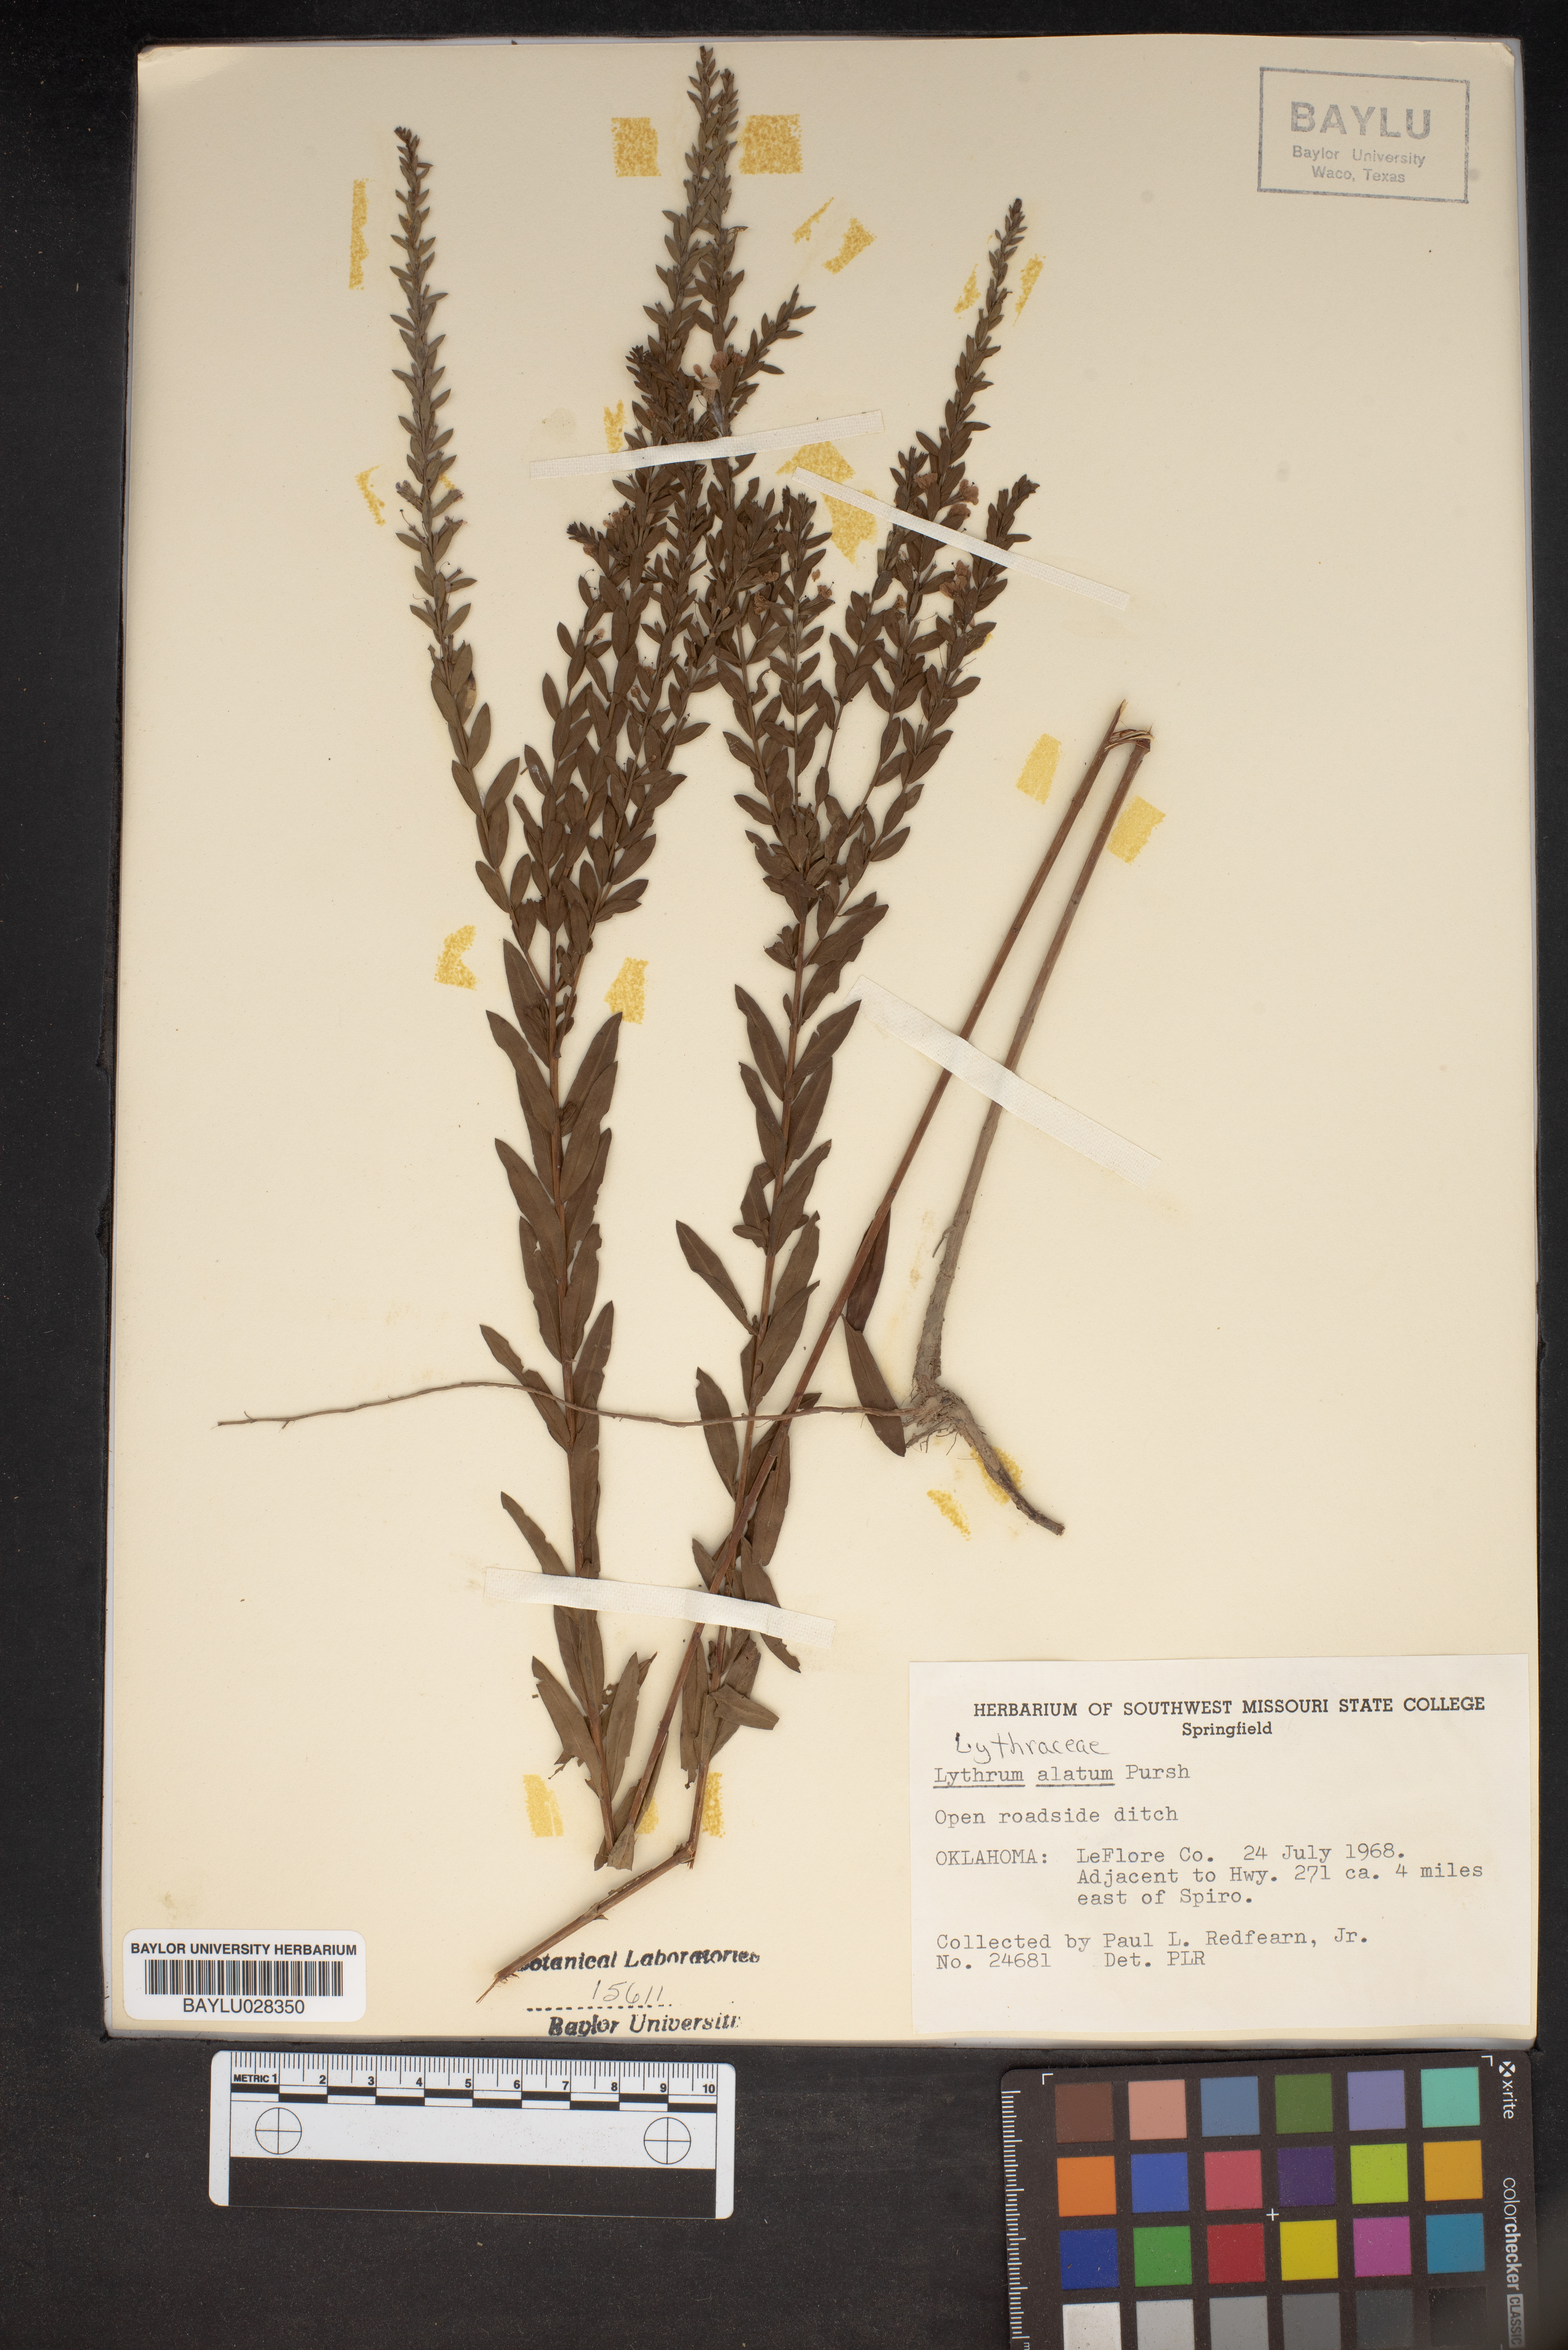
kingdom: Plantae
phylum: Tracheophyta
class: Magnoliopsida
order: Myrtales
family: Lythraceae
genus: Lythrum
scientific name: Lythrum alatum
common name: Winged loosestrife
